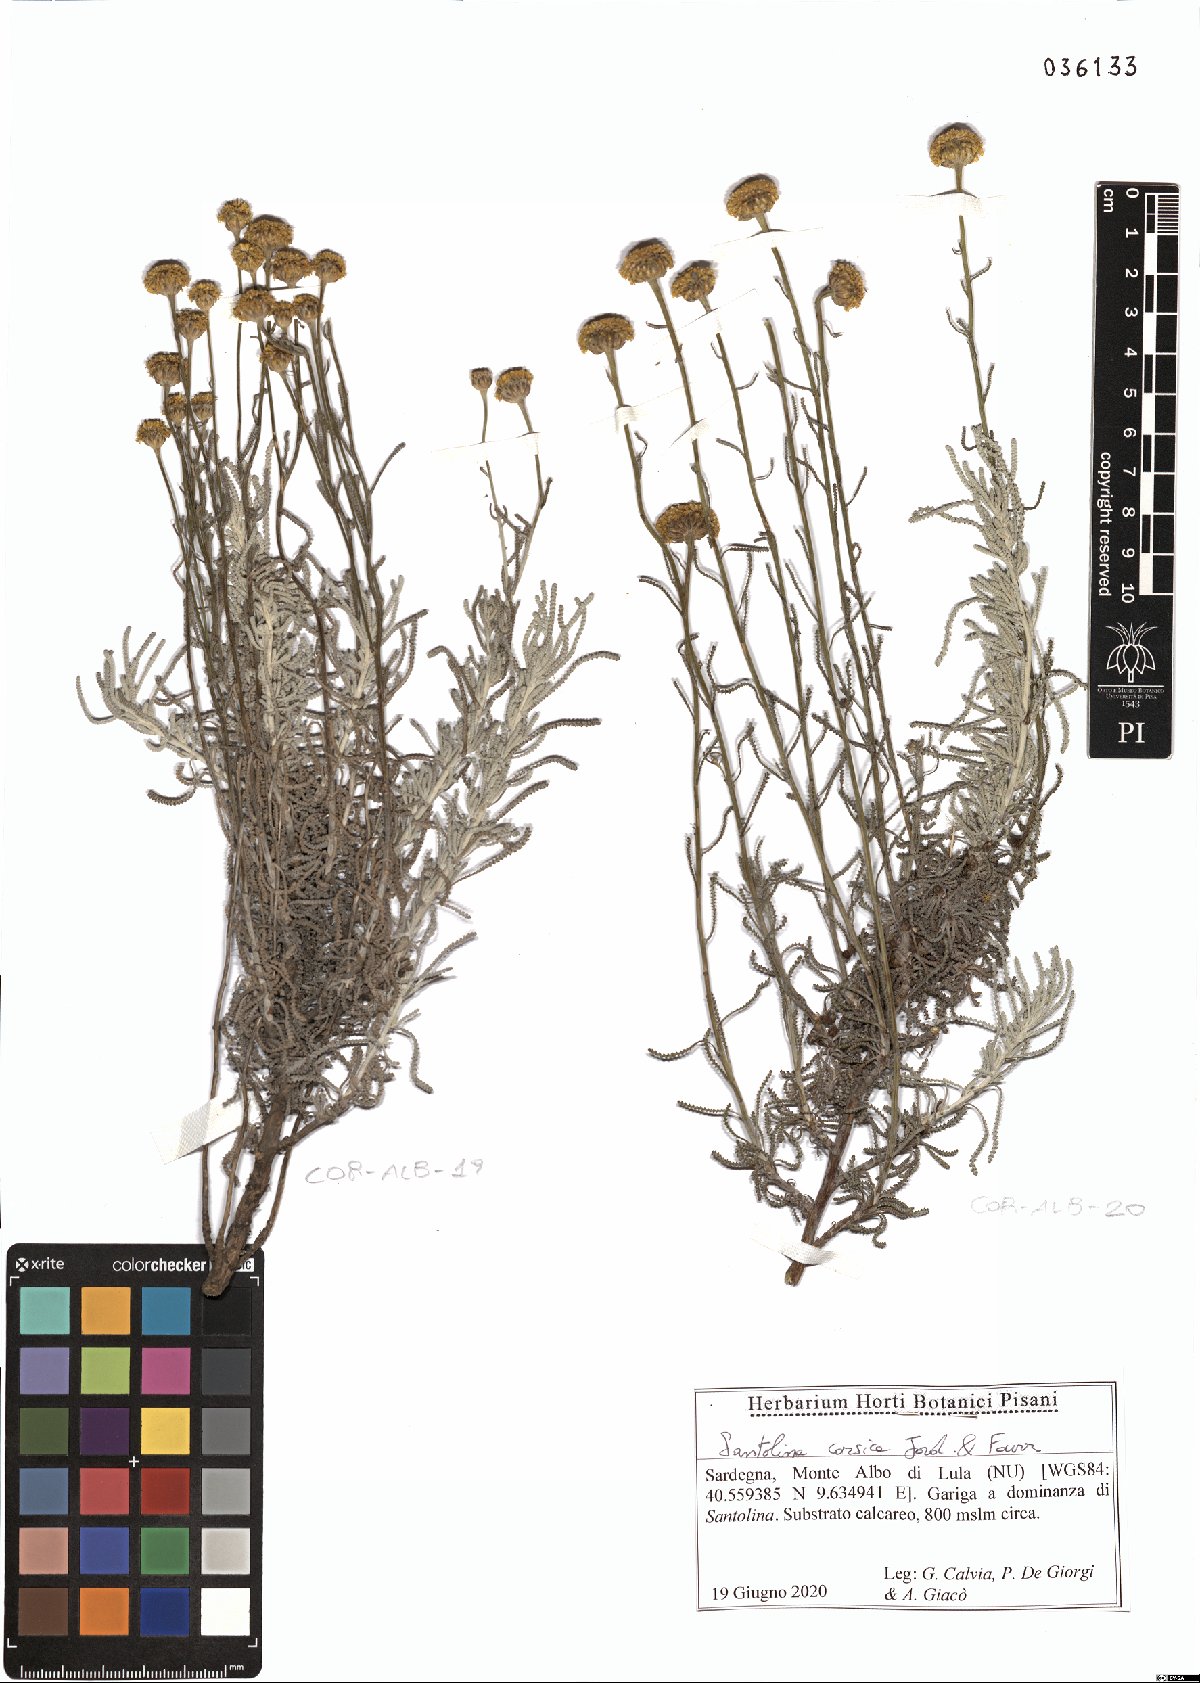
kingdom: Plantae
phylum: Tracheophyta
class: Magnoliopsida
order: Asterales
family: Asteraceae
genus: Santolina
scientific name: Santolina corsica
